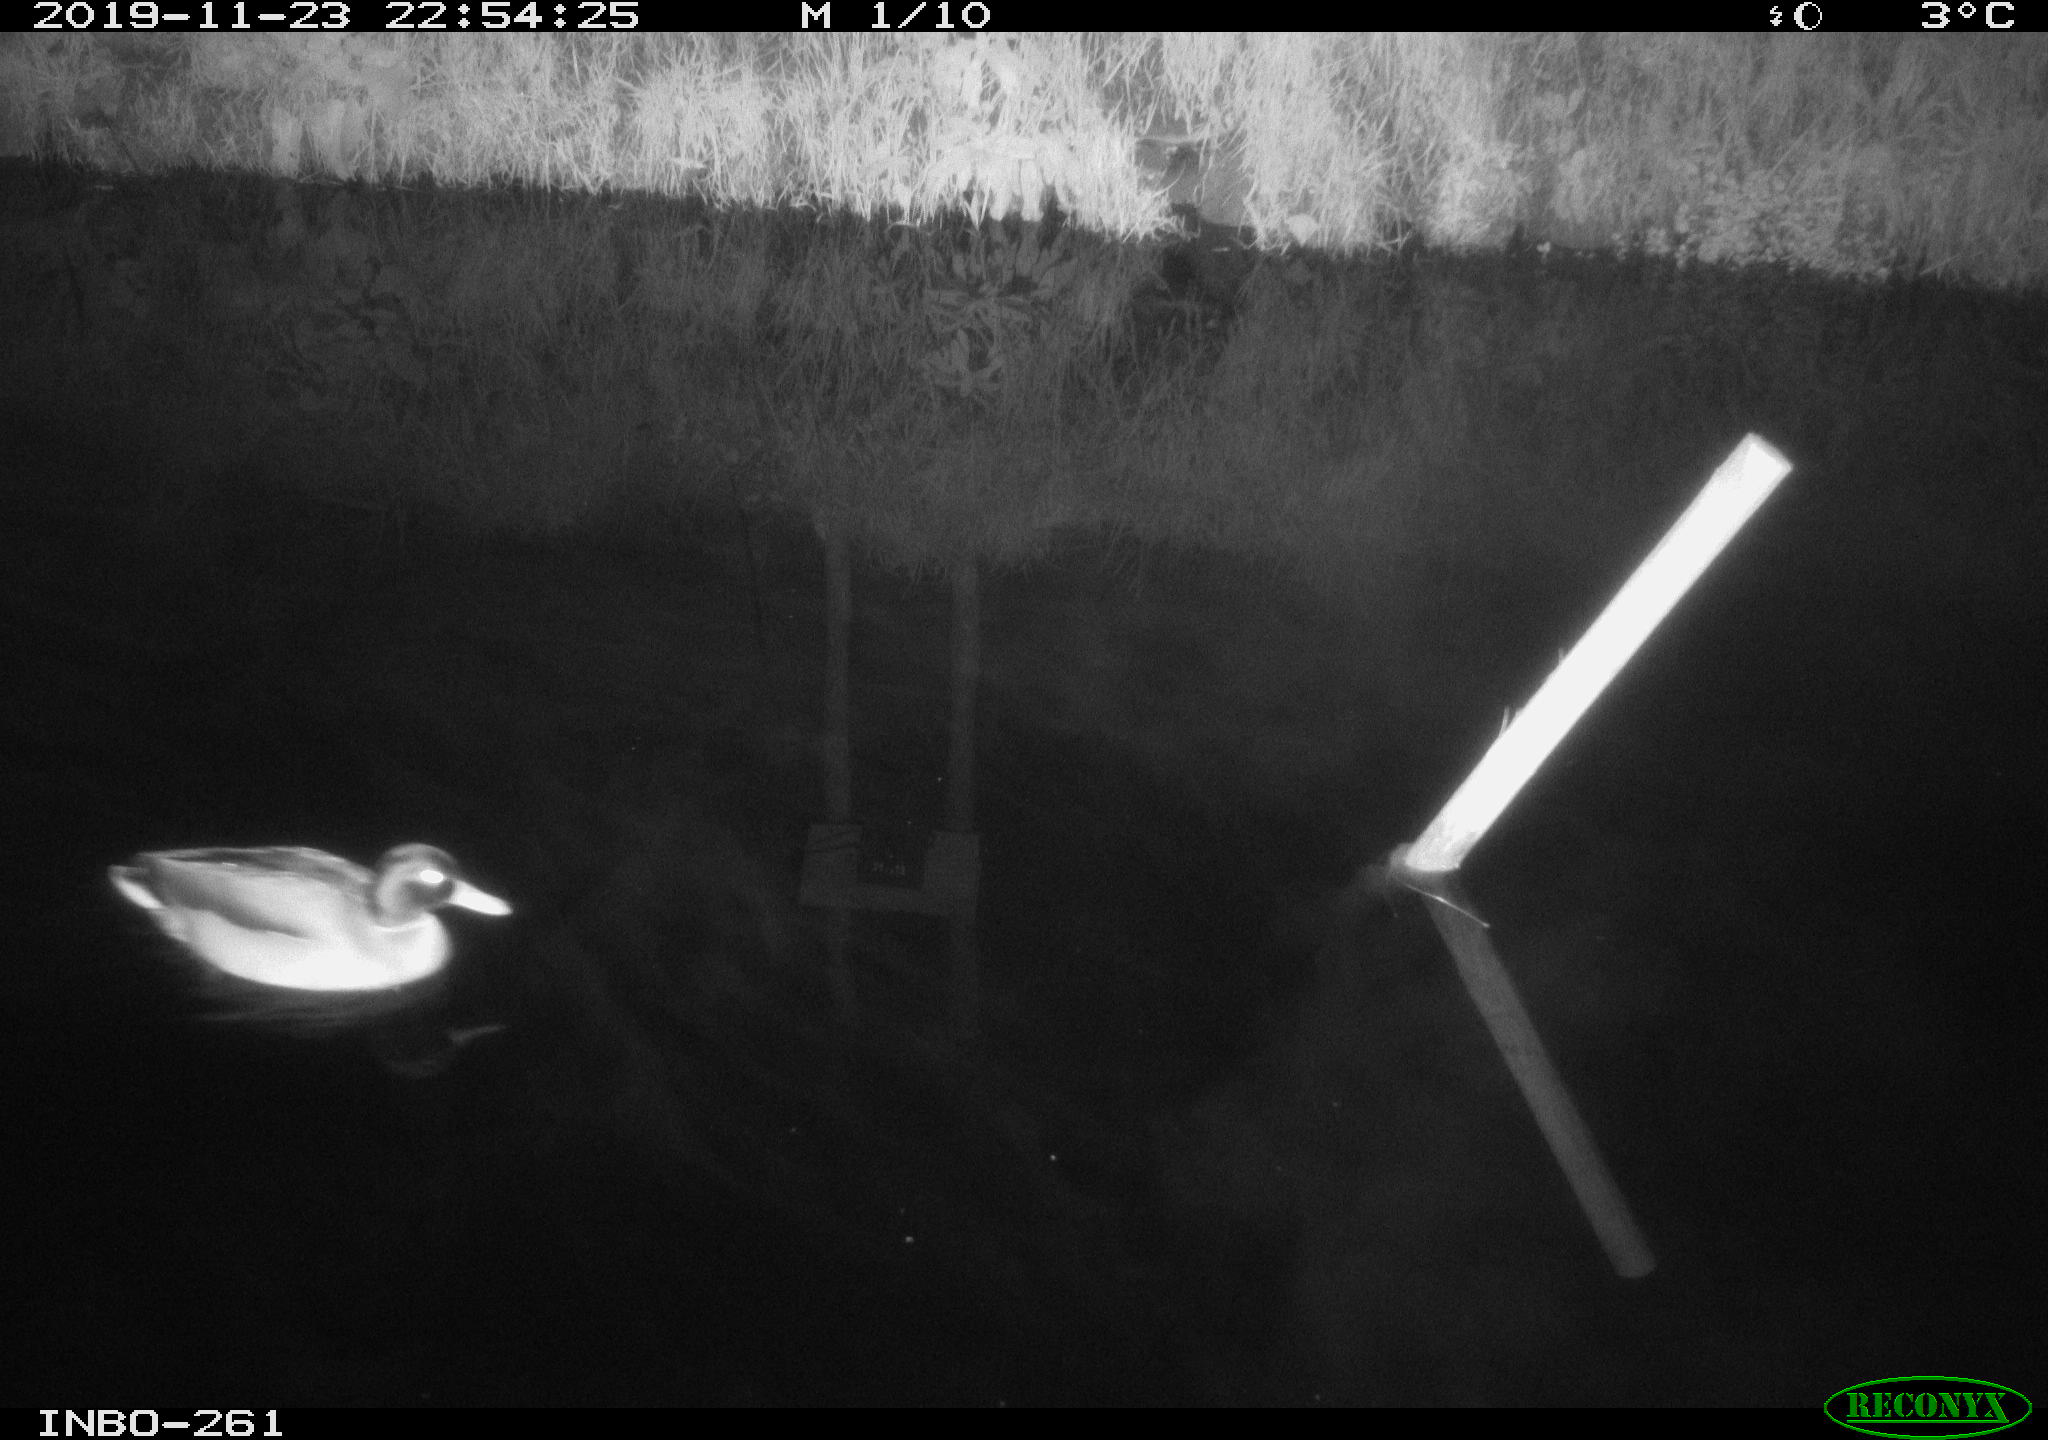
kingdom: Animalia
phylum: Chordata
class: Aves
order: Anseriformes
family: Anatidae
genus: Anas
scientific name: Anas platyrhynchos
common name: Mallard
